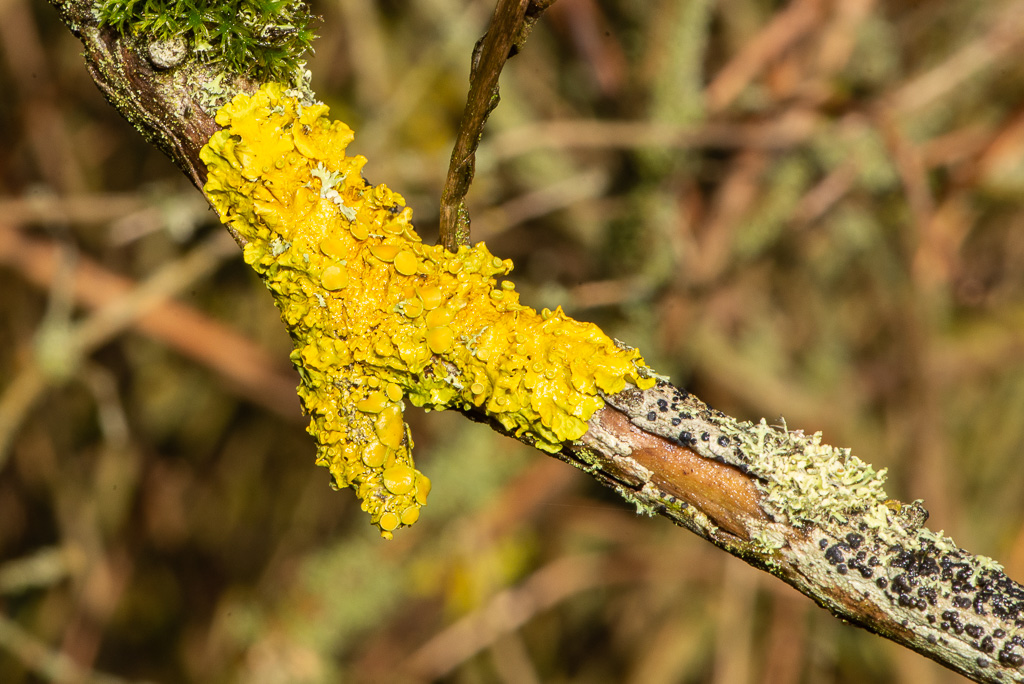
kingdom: Fungi
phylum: Ascomycota
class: Lecanoromycetes
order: Teloschistales
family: Teloschistaceae
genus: Xanthoria
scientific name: Xanthoria parietina
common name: almindelig væggelav
